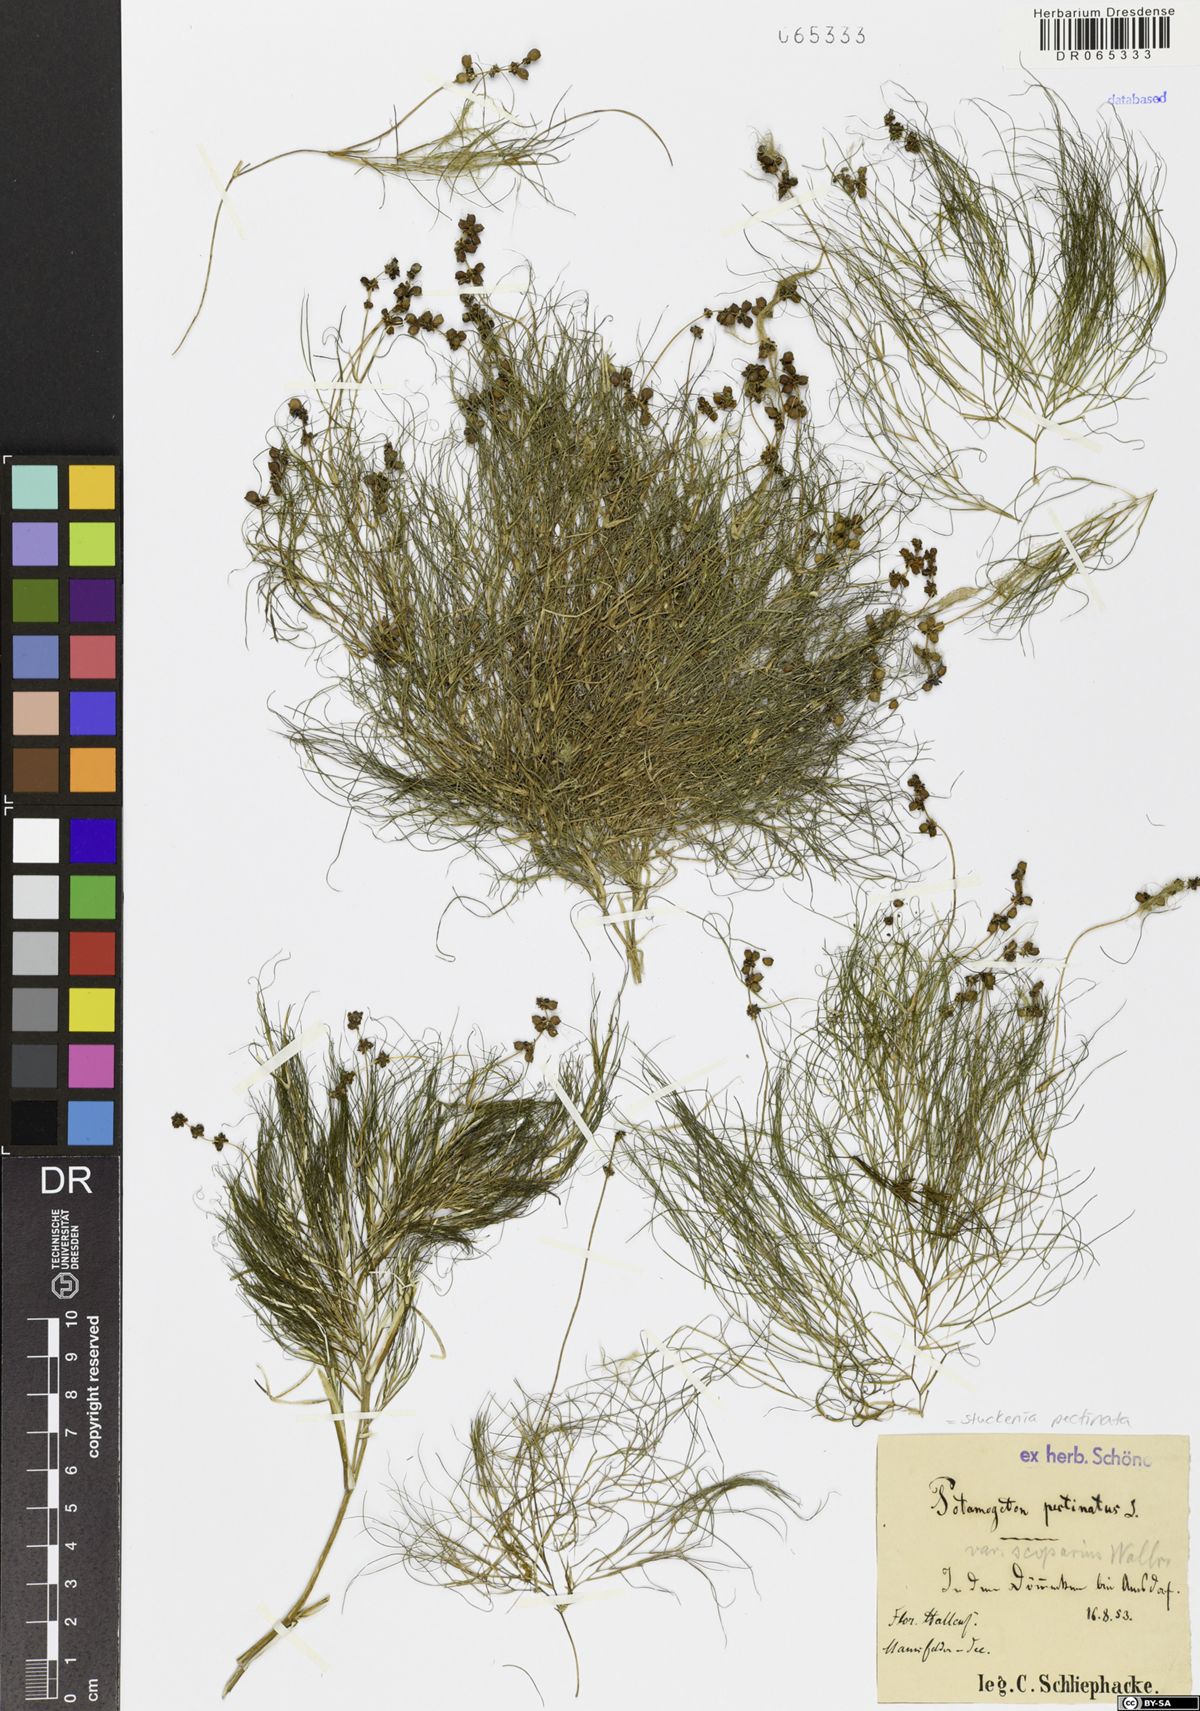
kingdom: Plantae
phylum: Tracheophyta
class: Liliopsida
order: Alismatales
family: Potamogetonaceae
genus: Stuckenia
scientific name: Stuckenia pectinata
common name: Sago pondweed
